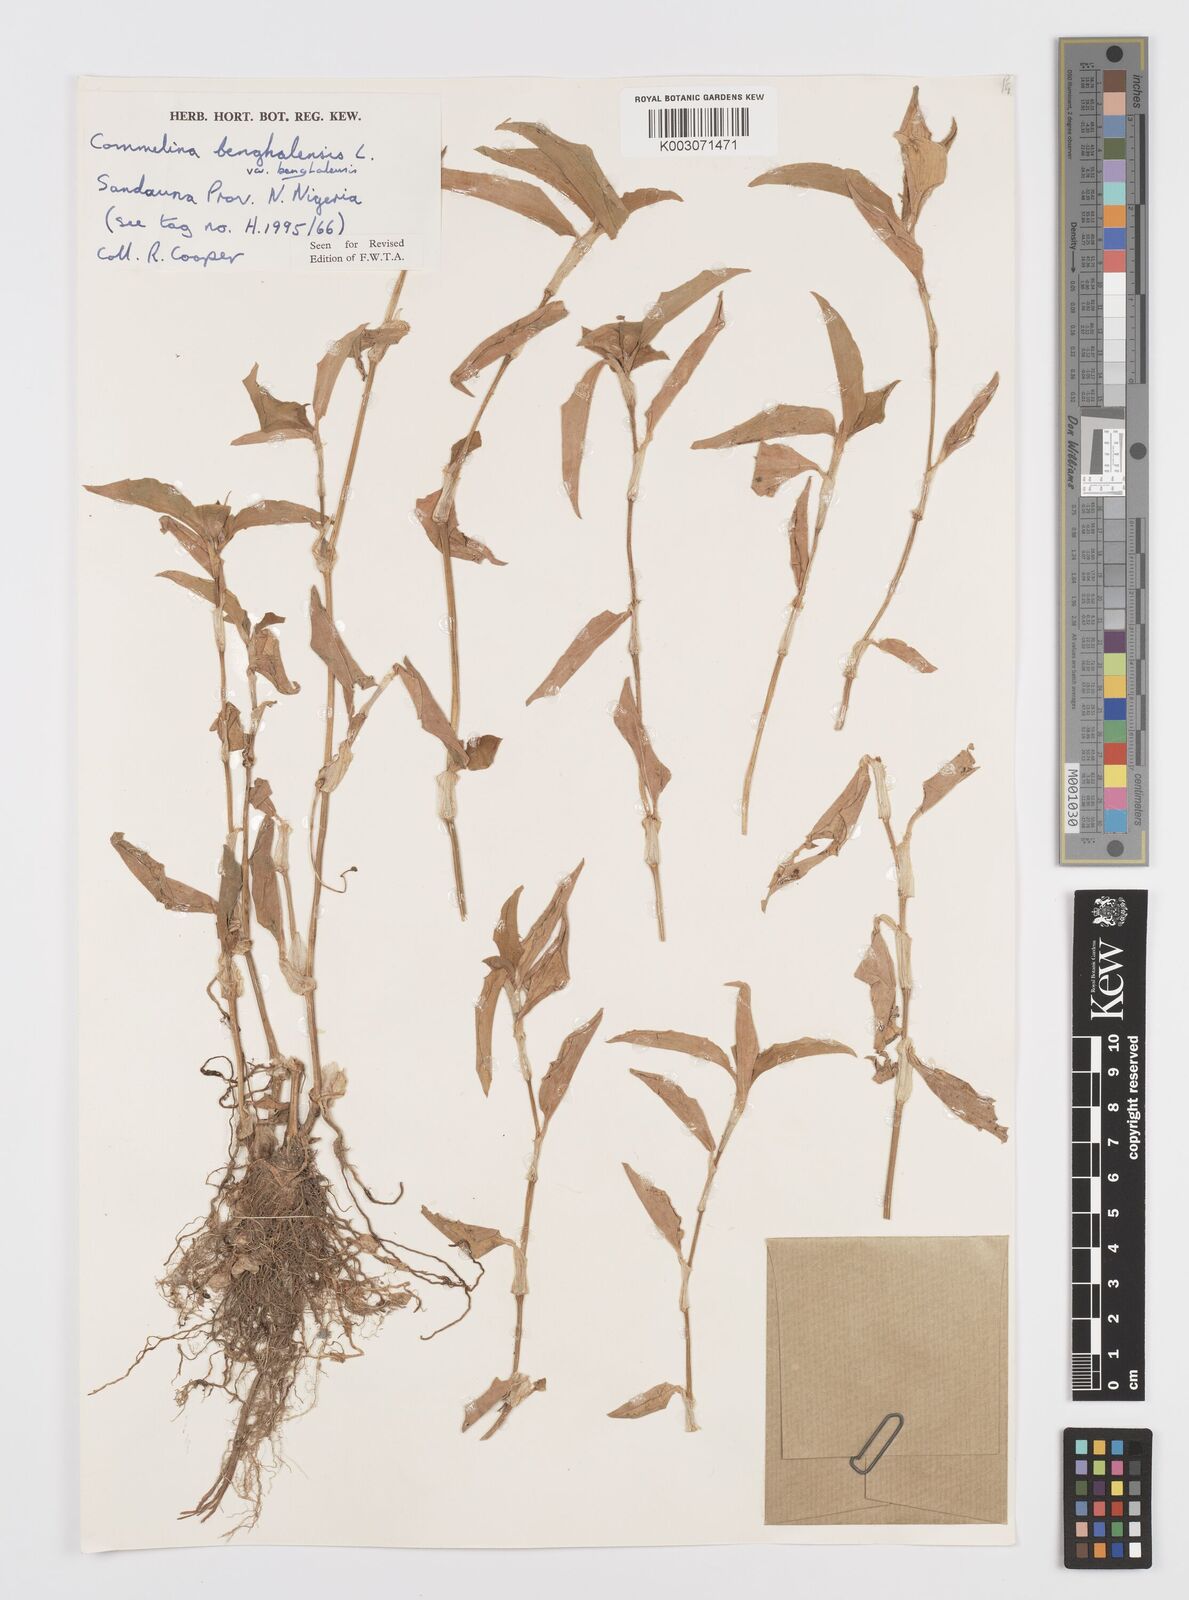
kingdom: Plantae
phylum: Tracheophyta
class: Liliopsida
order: Commelinales
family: Commelinaceae
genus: Commelina
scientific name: Commelina benghalensis
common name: Jio
